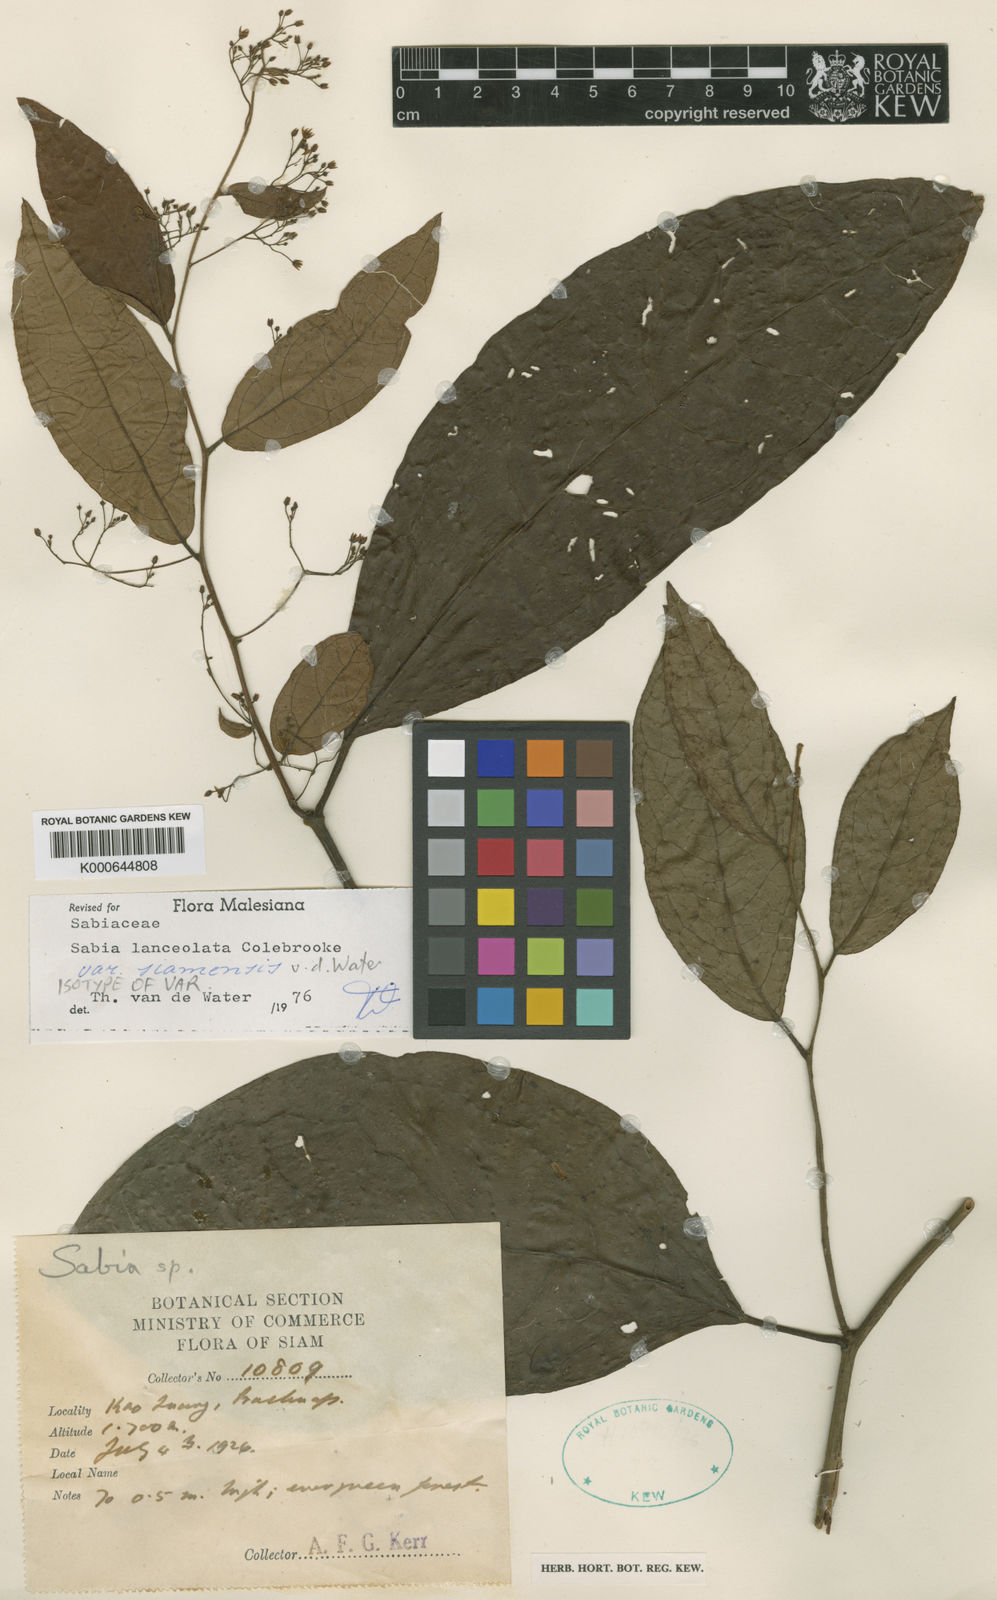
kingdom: Plantae
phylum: Tracheophyta
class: Magnoliopsida
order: Proteales
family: Sabiaceae
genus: Sabia
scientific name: Sabia lanceolata
